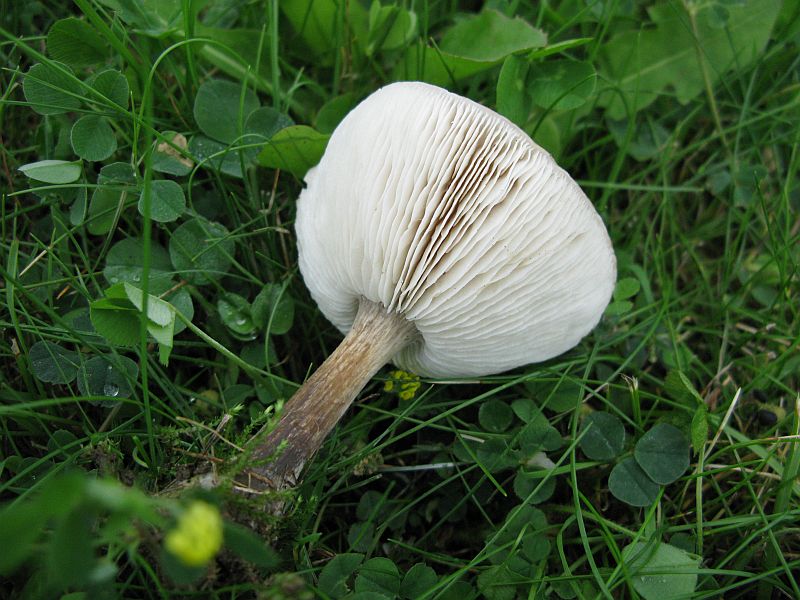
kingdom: Fungi
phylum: Basidiomycota
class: Agaricomycetes
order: Agaricales
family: Tricholomataceae
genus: Melanoleuca
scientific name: Melanoleuca polioleuca
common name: almindelig munkehat
